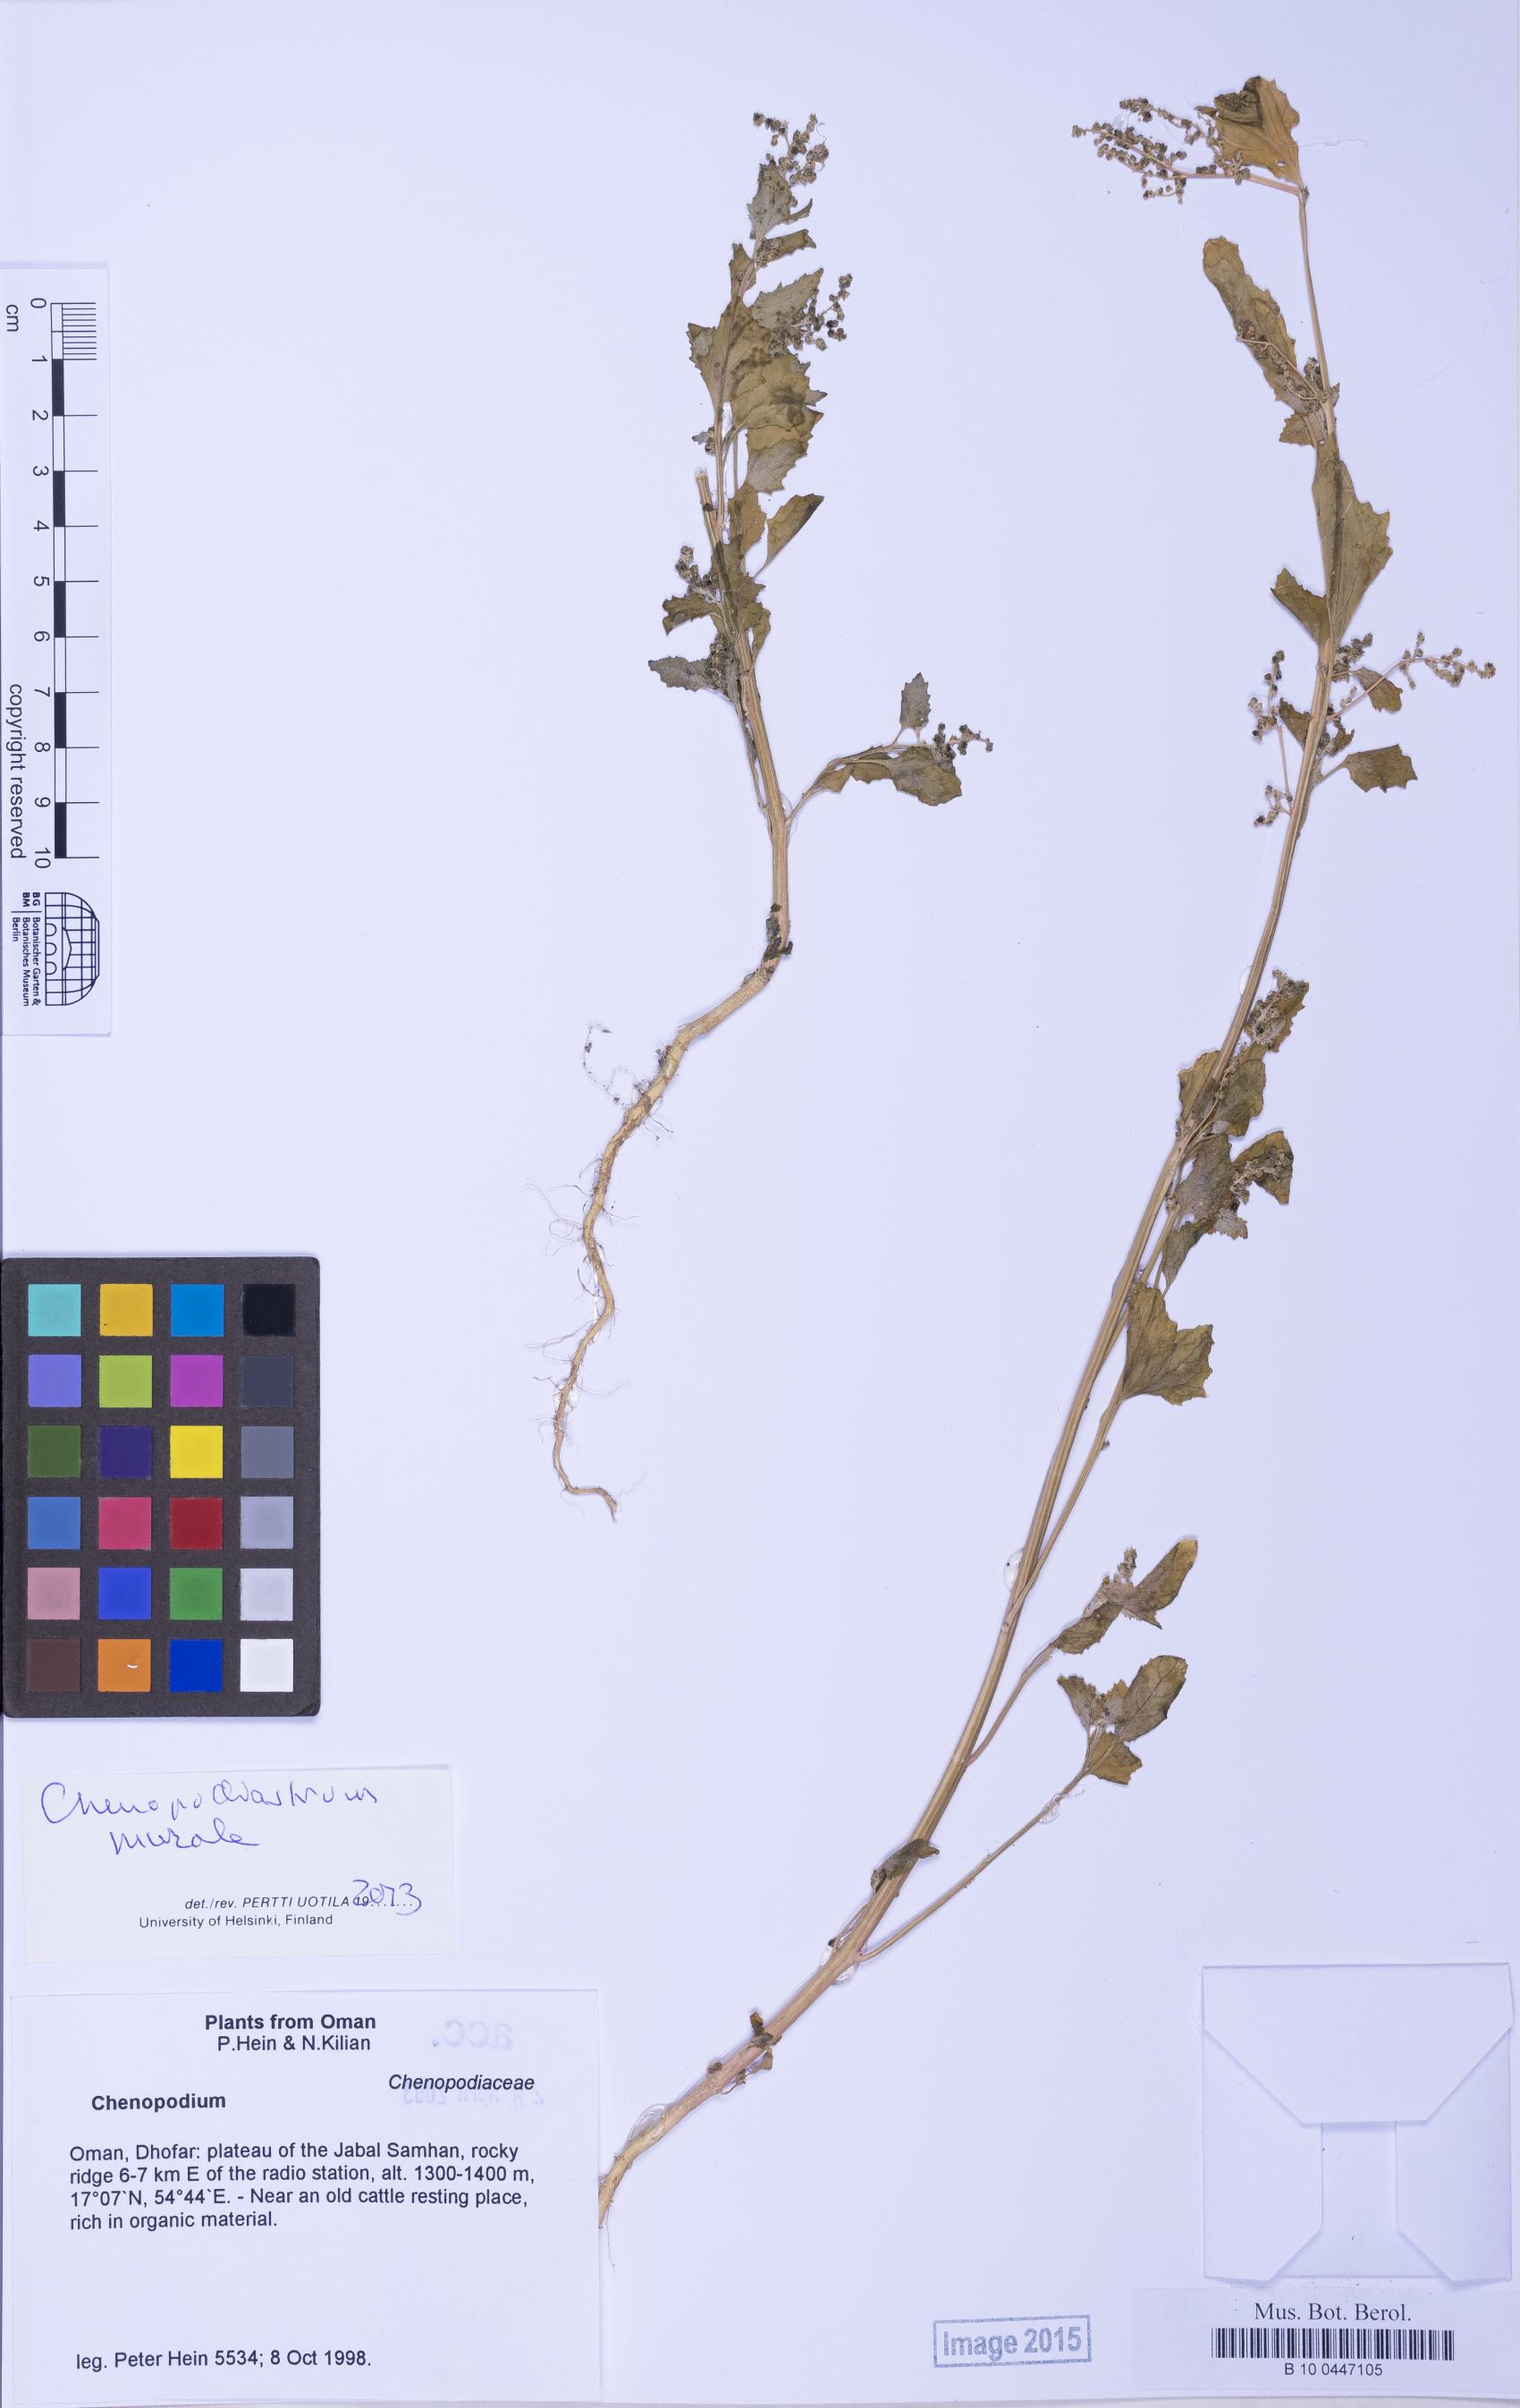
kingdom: Plantae
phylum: Tracheophyta
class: Magnoliopsida
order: Caryophyllales
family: Amaranthaceae
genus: Chenopodium
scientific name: Chenopodium
